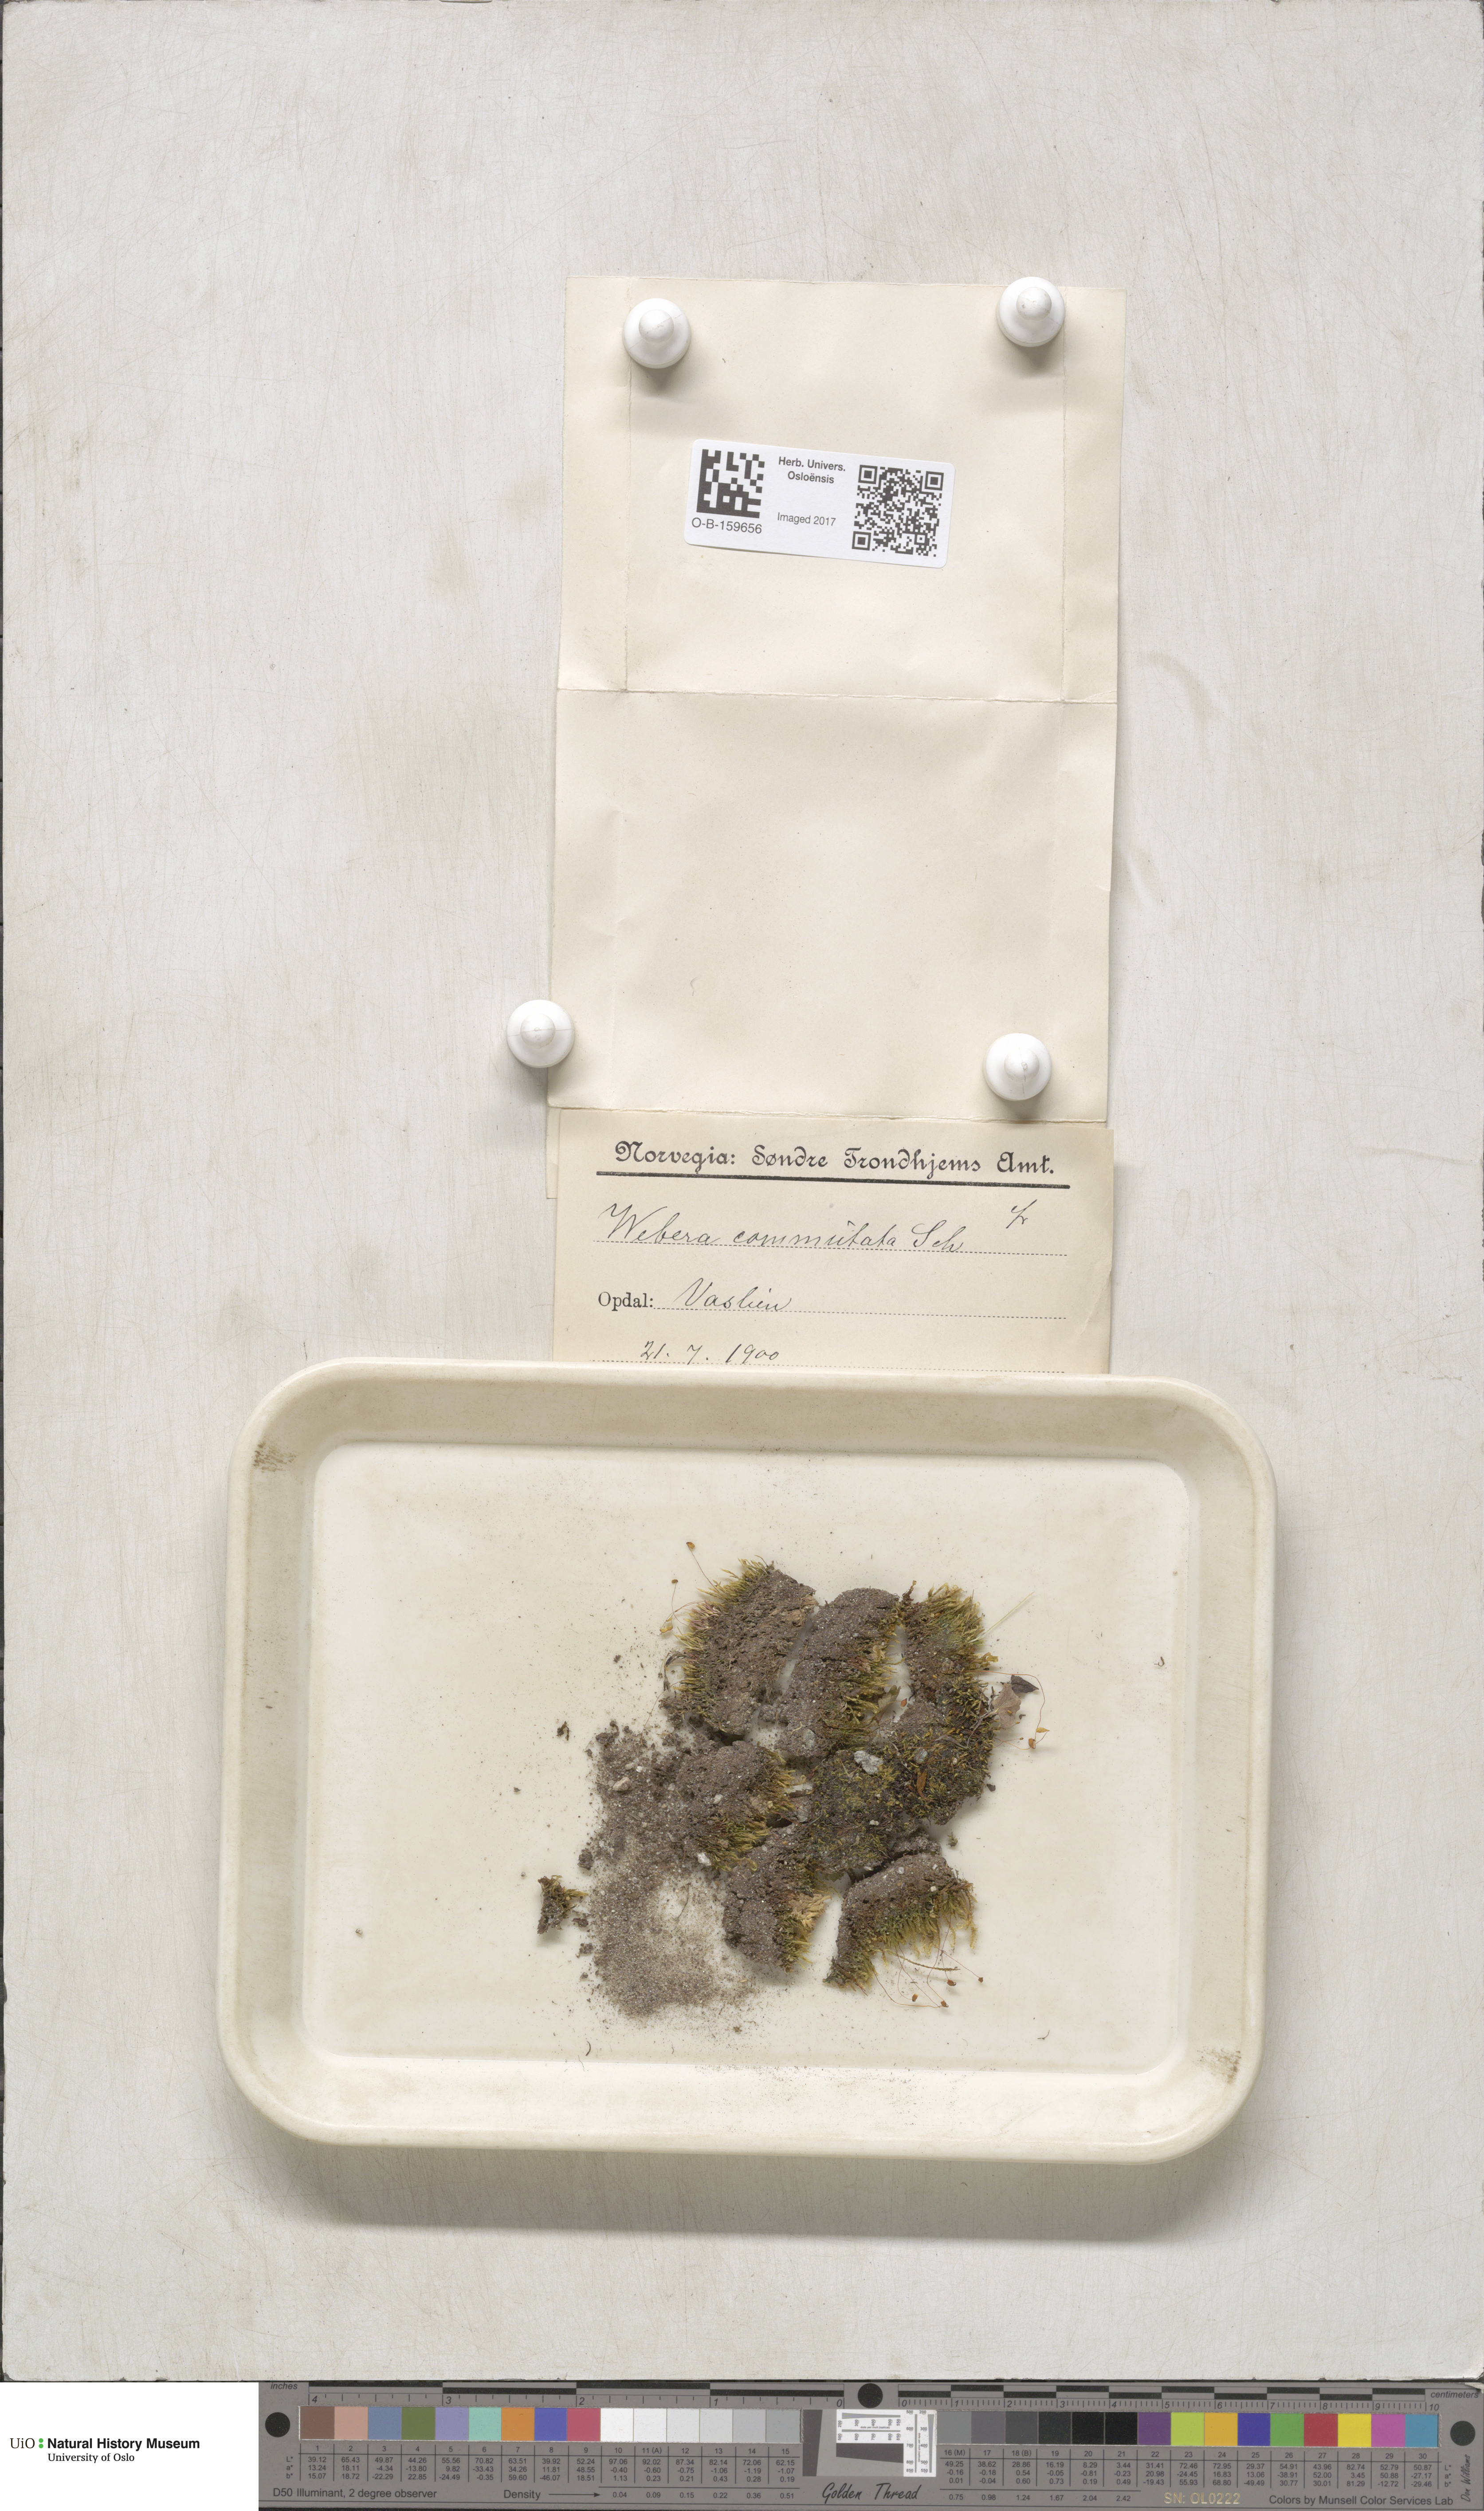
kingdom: Plantae
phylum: Bryophyta
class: Bryopsida
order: Bryales
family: Mniaceae
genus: Pohlia
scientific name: Pohlia drummondii
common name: Drummond's nodding moss
